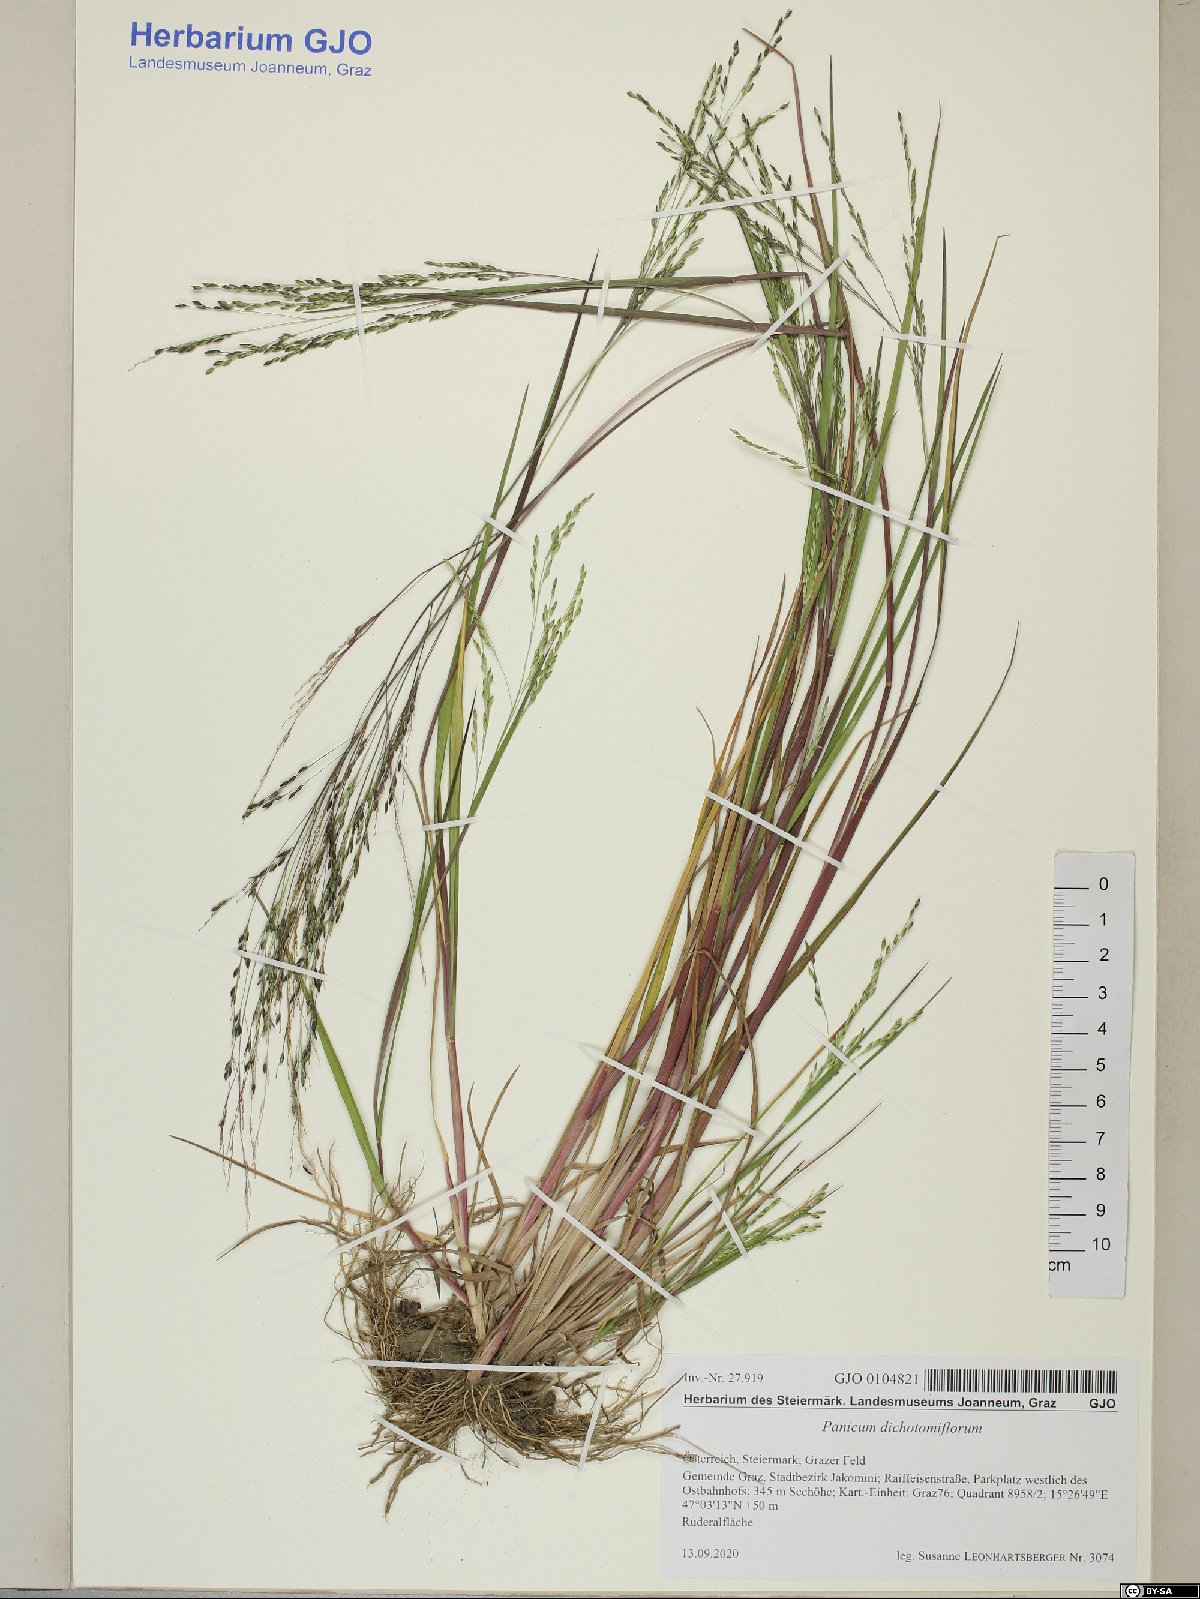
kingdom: Plantae
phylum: Tracheophyta
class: Liliopsida
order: Poales
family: Poaceae
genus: Panicum
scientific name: Panicum dichotomiflorum
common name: Autumn millet
